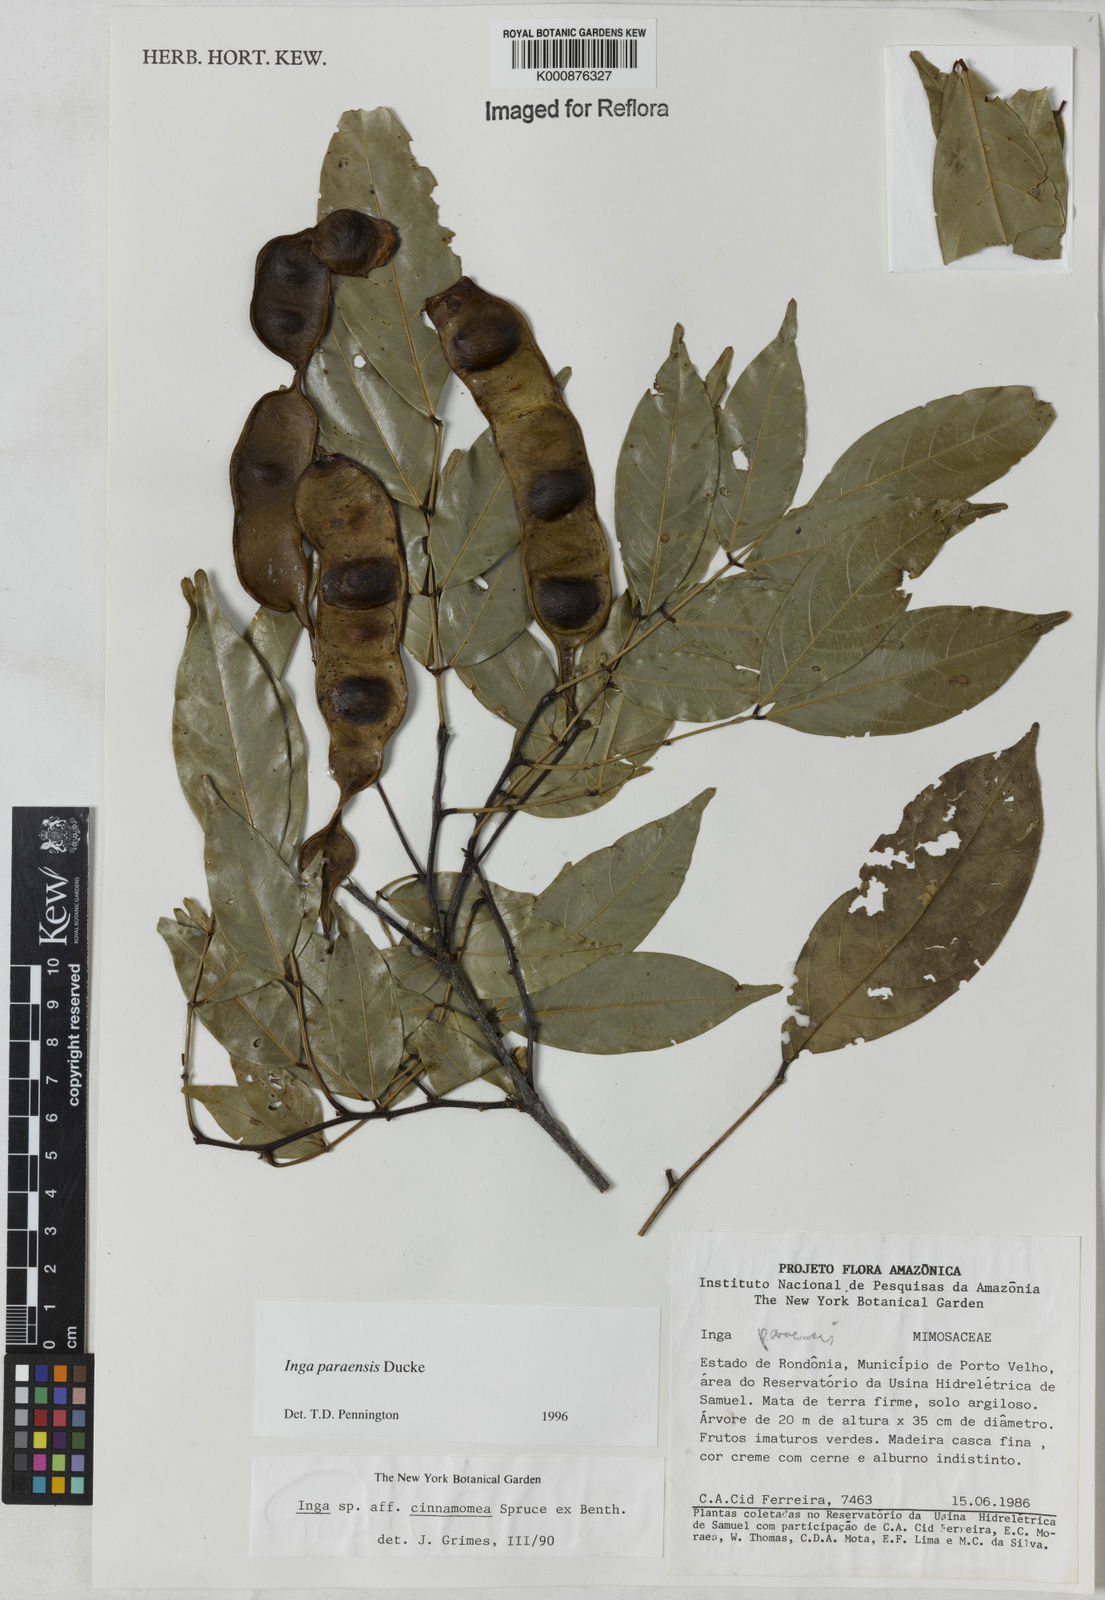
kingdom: Plantae
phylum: Tracheophyta
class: Magnoliopsida
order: Fabales
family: Fabaceae
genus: Inga
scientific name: Inga paraensis
